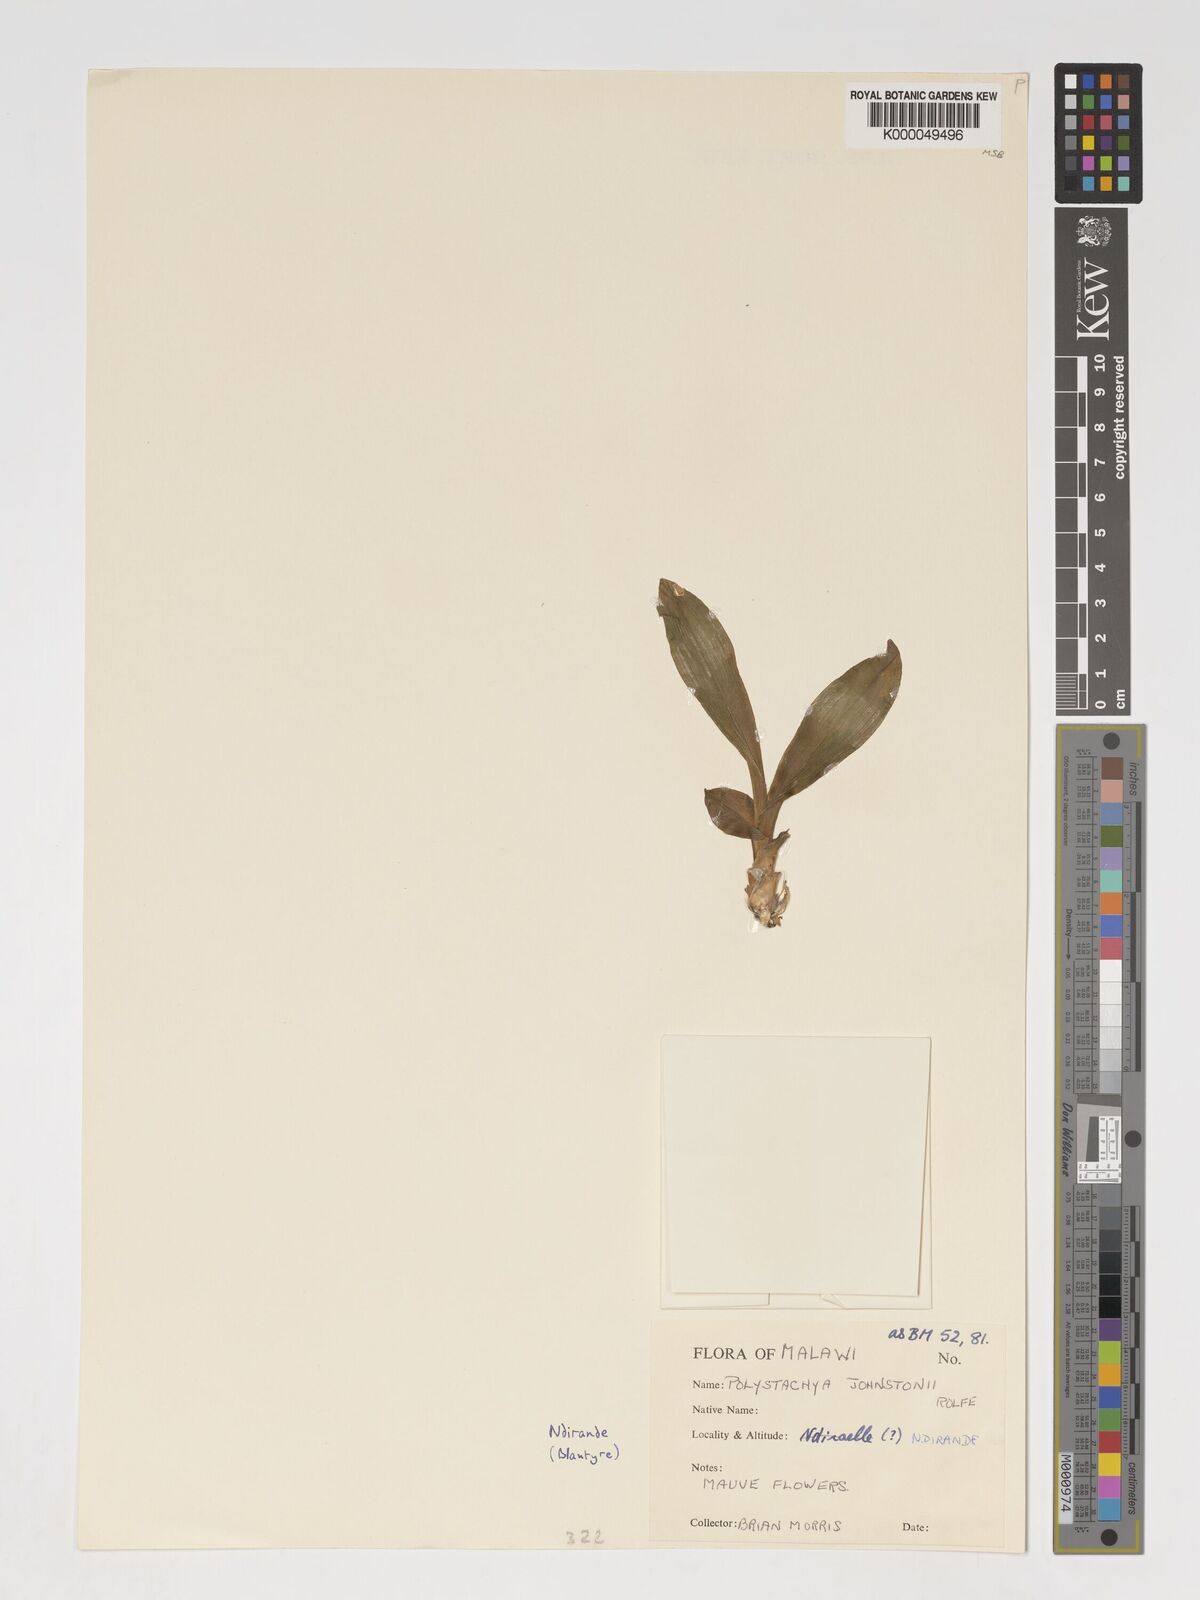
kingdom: Plantae
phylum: Tracheophyta
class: Liliopsida
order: Asparagales
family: Orchidaceae
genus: Polystachya
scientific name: Polystachya johnstonii
